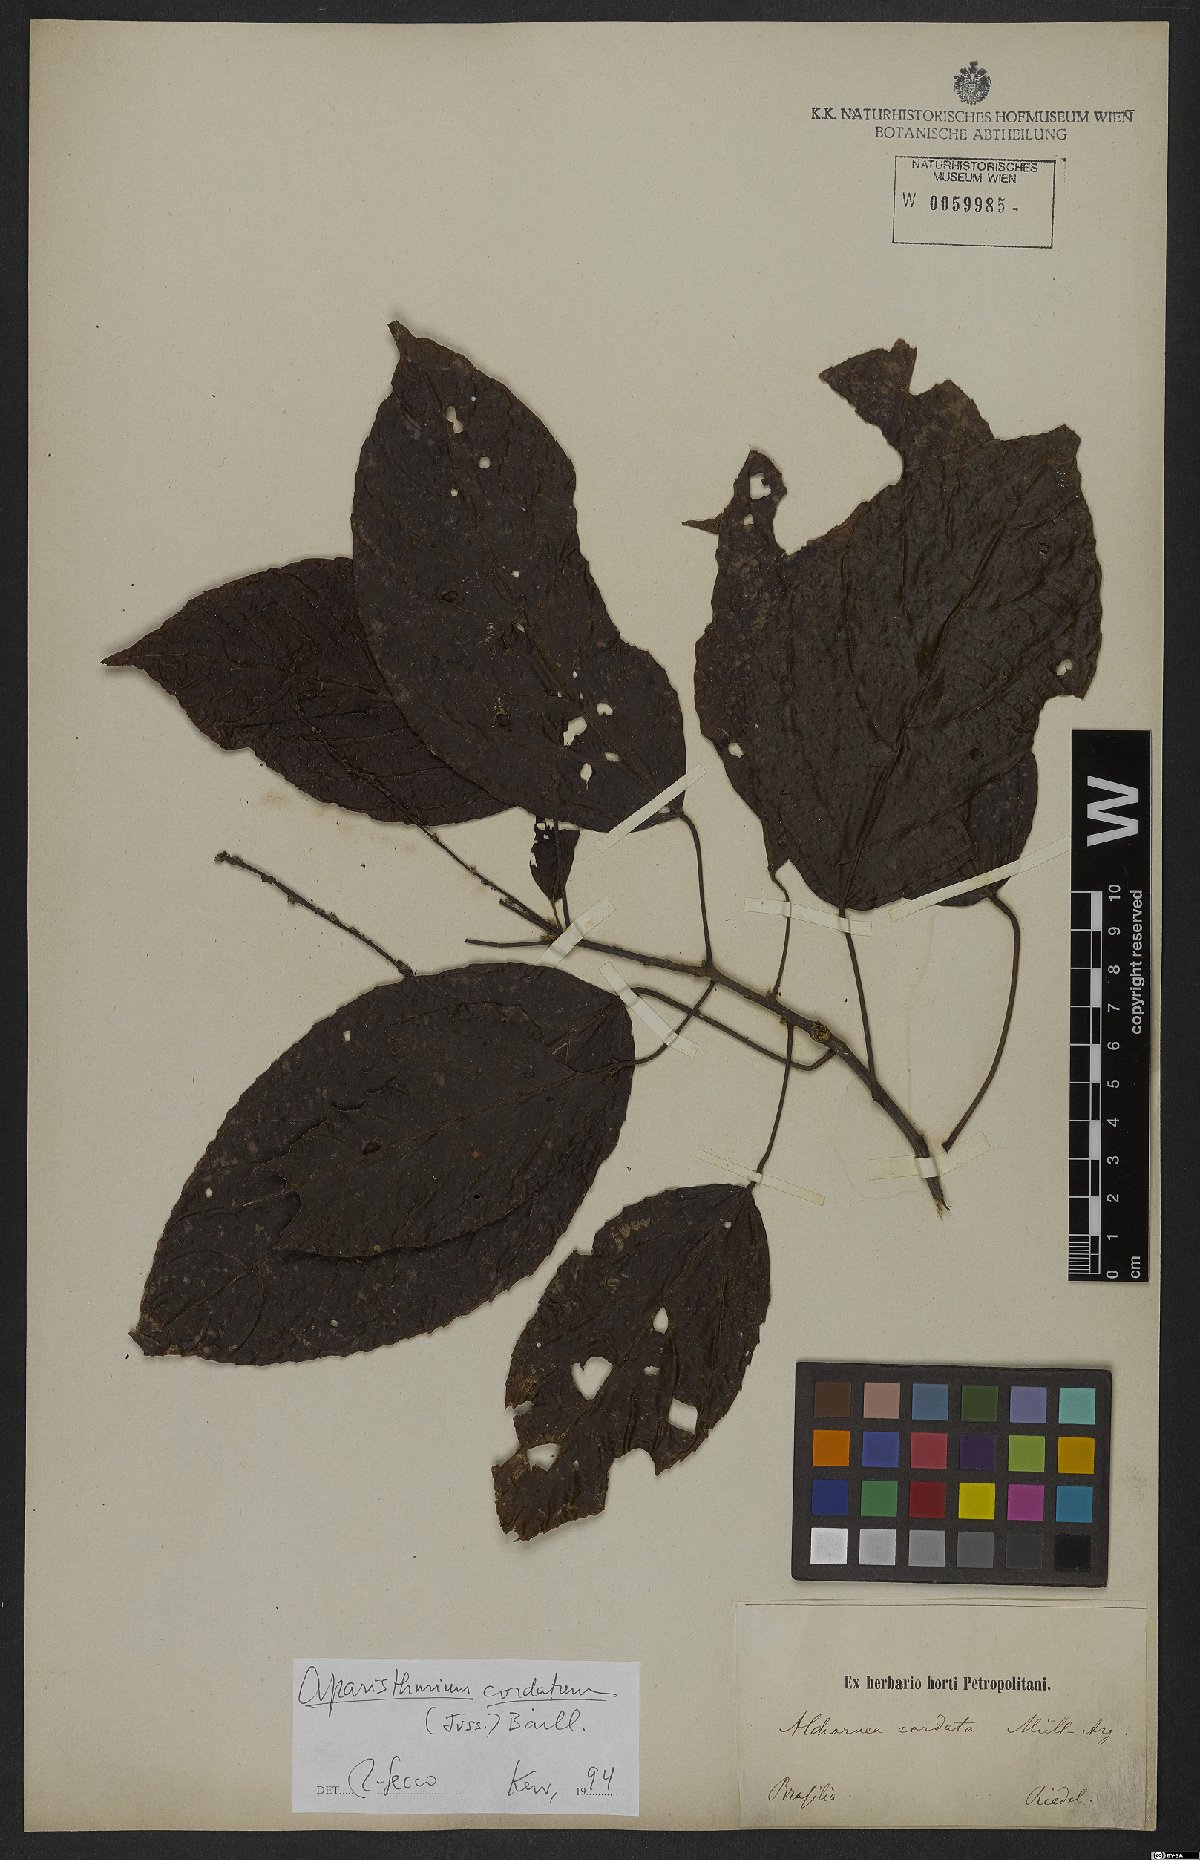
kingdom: Plantae
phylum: Tracheophyta
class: Magnoliopsida
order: Malpighiales
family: Euphorbiaceae
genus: Aparisthmium
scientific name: Aparisthmium cordatum
